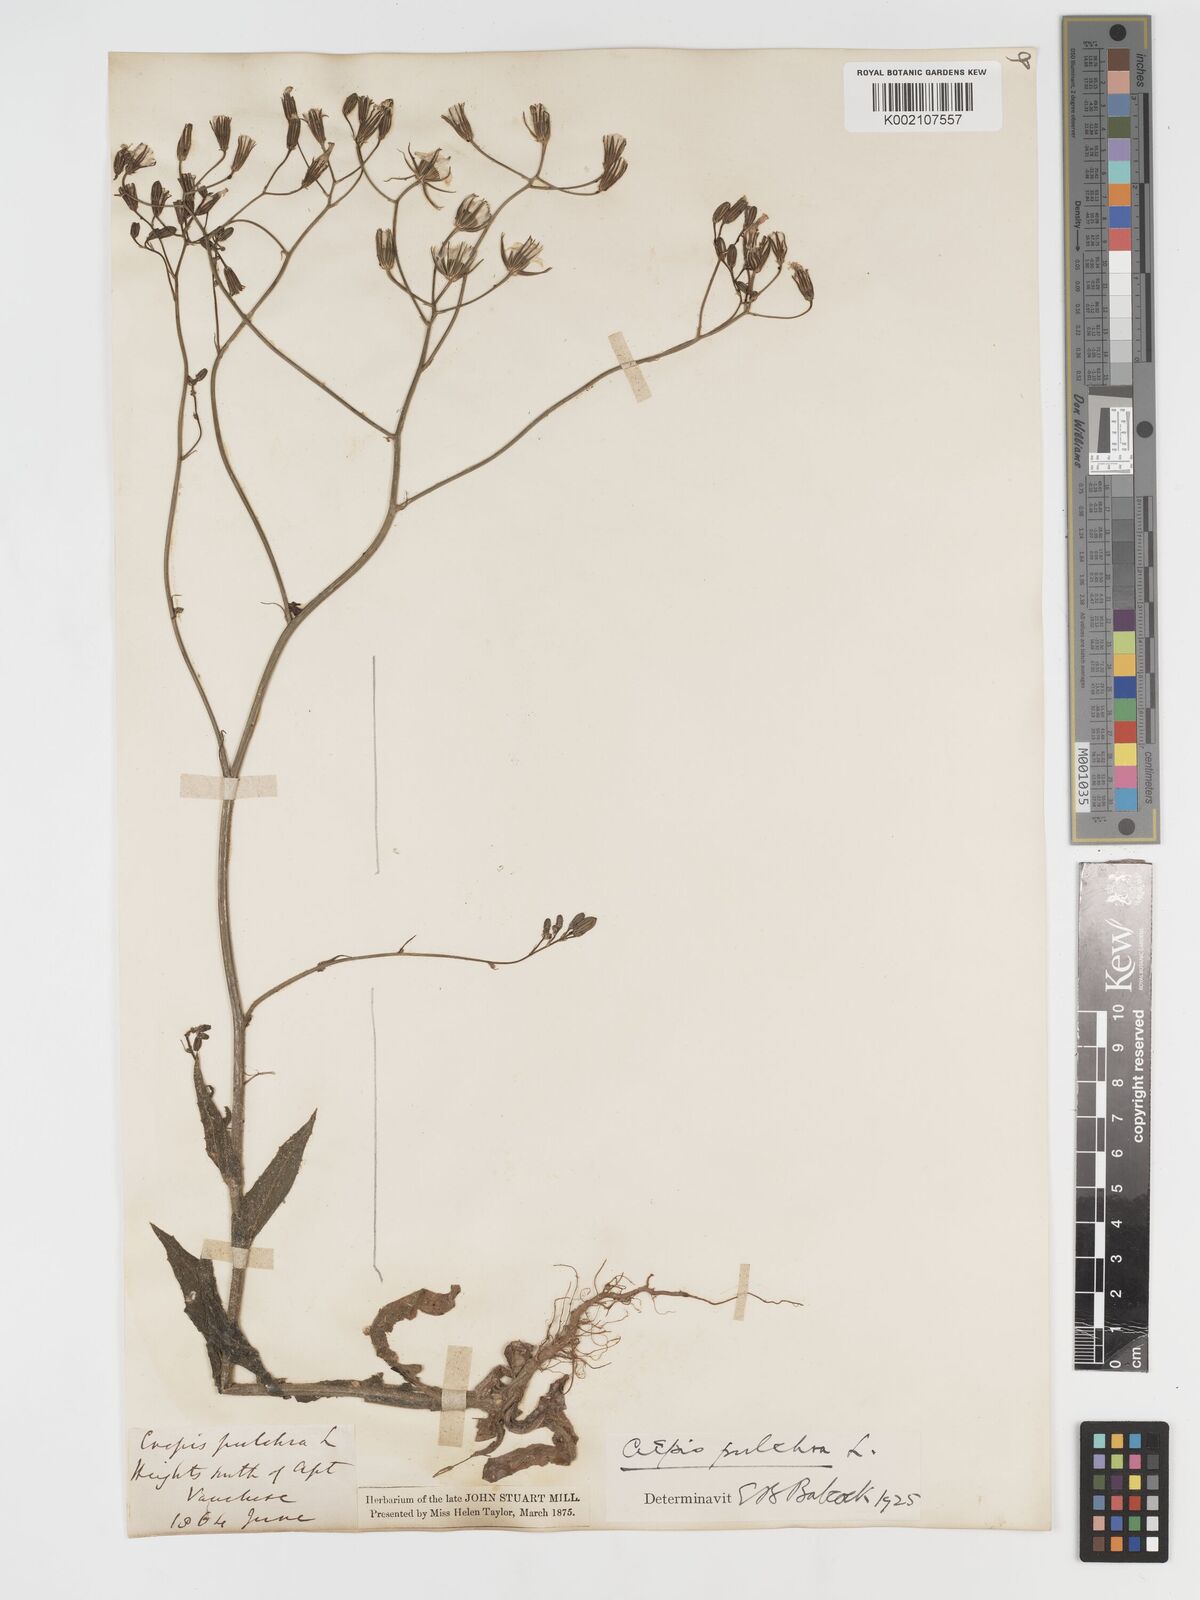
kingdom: Plantae
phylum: Tracheophyta
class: Magnoliopsida
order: Asterales
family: Asteraceae
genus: Crepis
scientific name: Crepis pulchra
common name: Hawk's-beard
